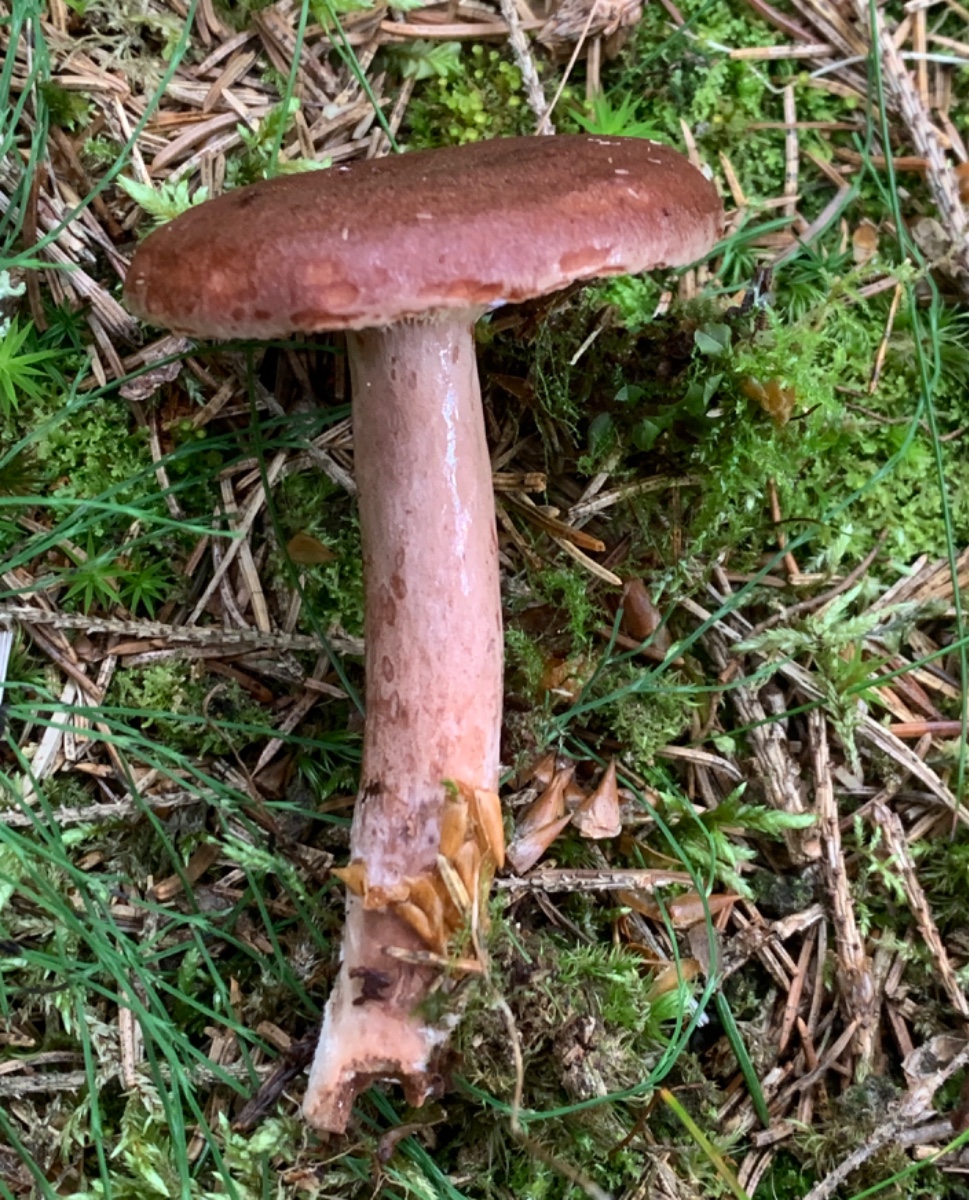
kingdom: Fungi
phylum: Basidiomycota
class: Agaricomycetes
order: Russulales
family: Russulaceae
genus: Lactarius
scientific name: Lactarius rufus
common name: rødbrun mælkehat
